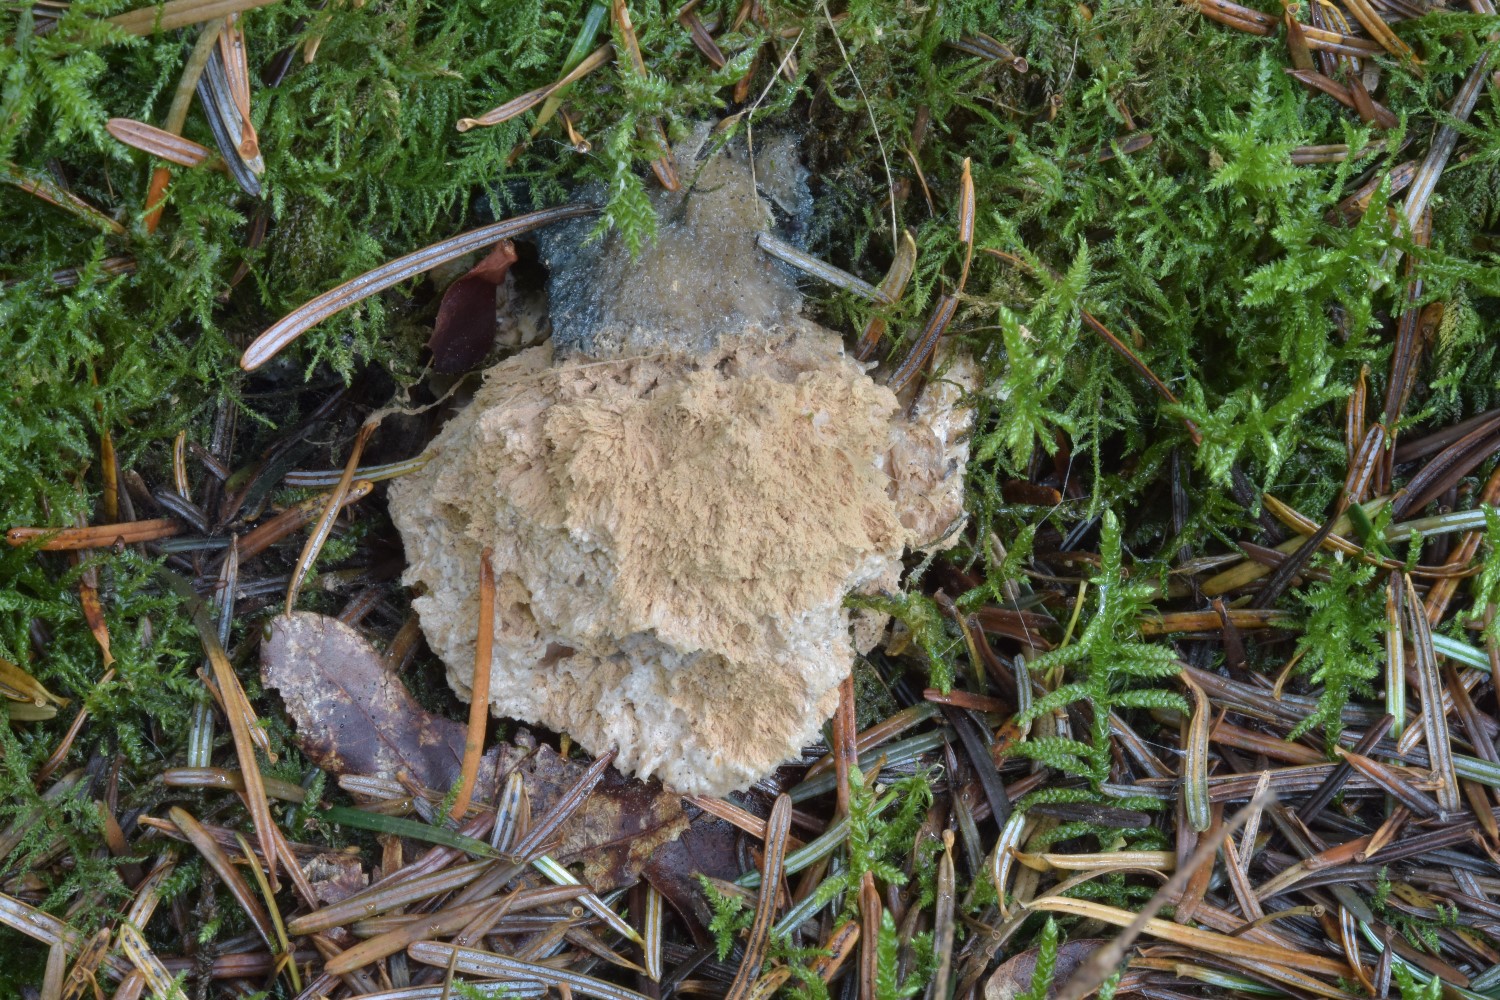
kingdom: Fungi
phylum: Basidiomycota
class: Agaricomycetes
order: Polyporales
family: Dacryobolaceae
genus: Postia
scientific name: Postia ptychogaster
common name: støvende kødporesvamp
